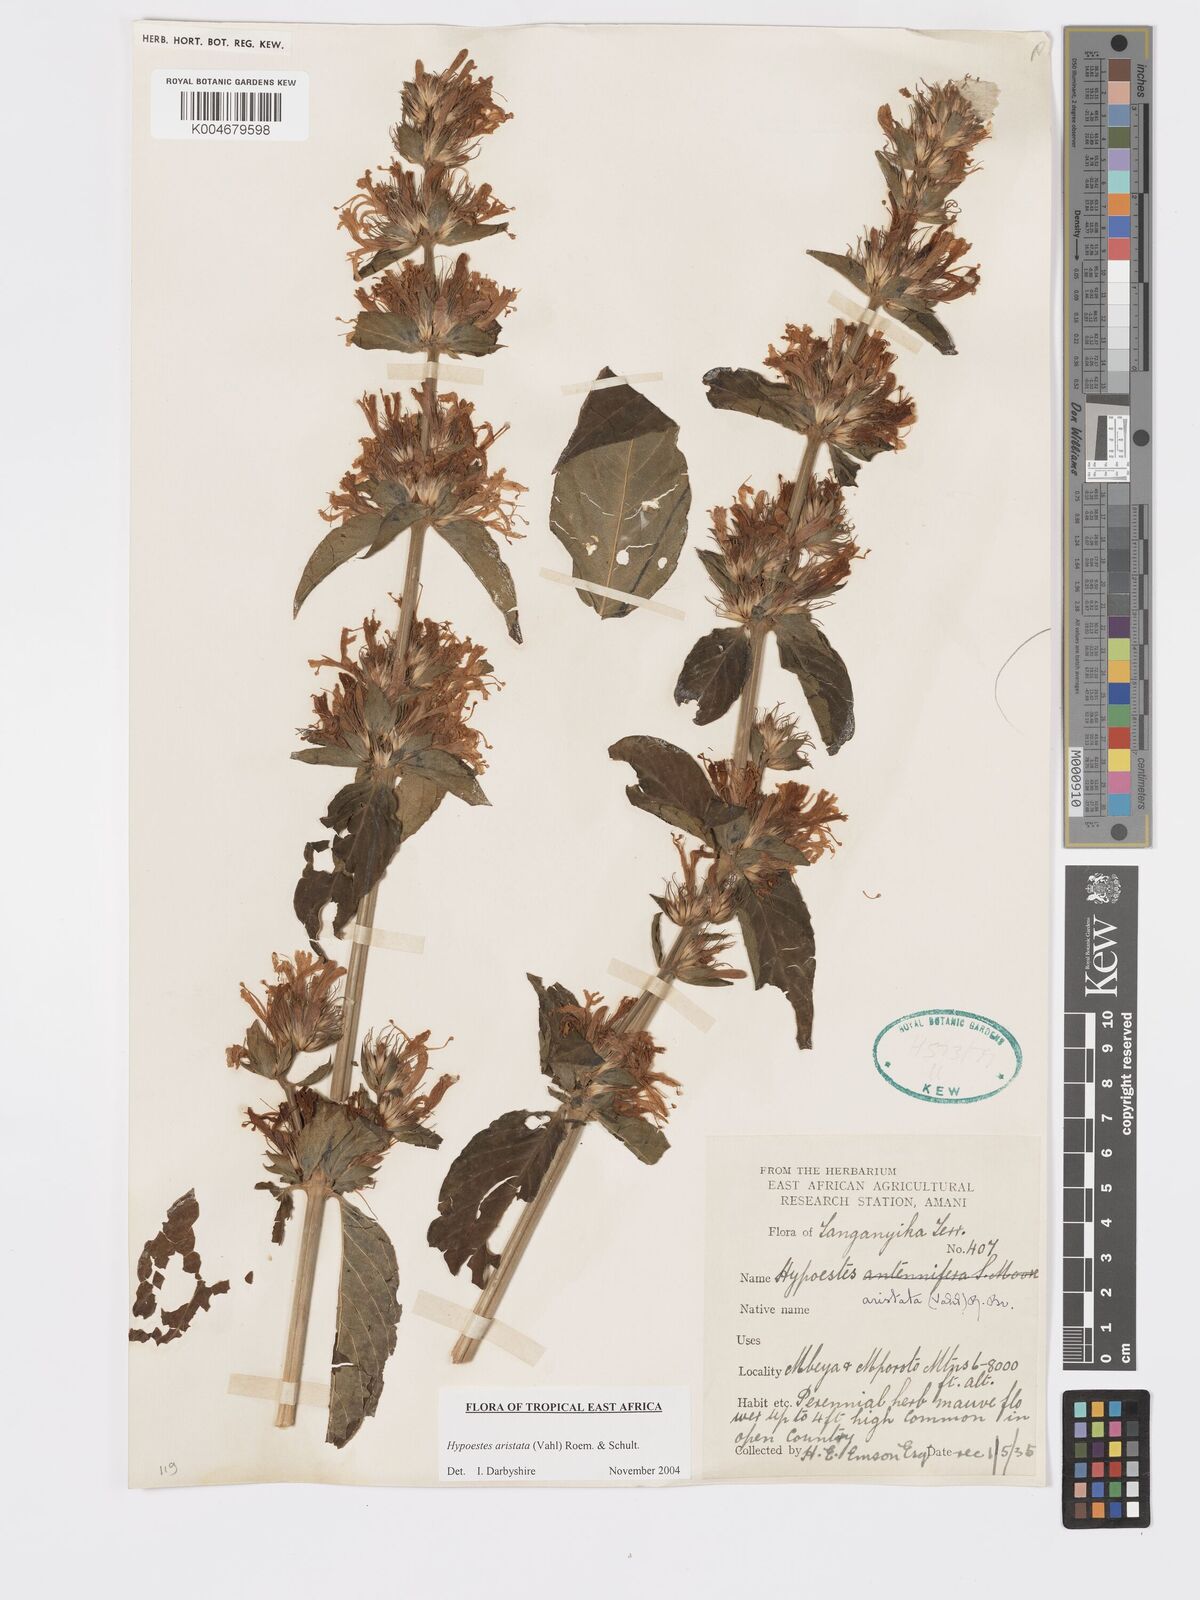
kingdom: Plantae
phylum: Tracheophyta
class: Magnoliopsida
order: Lamiales
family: Acanthaceae
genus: Hypoestes
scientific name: Hypoestes aristata
